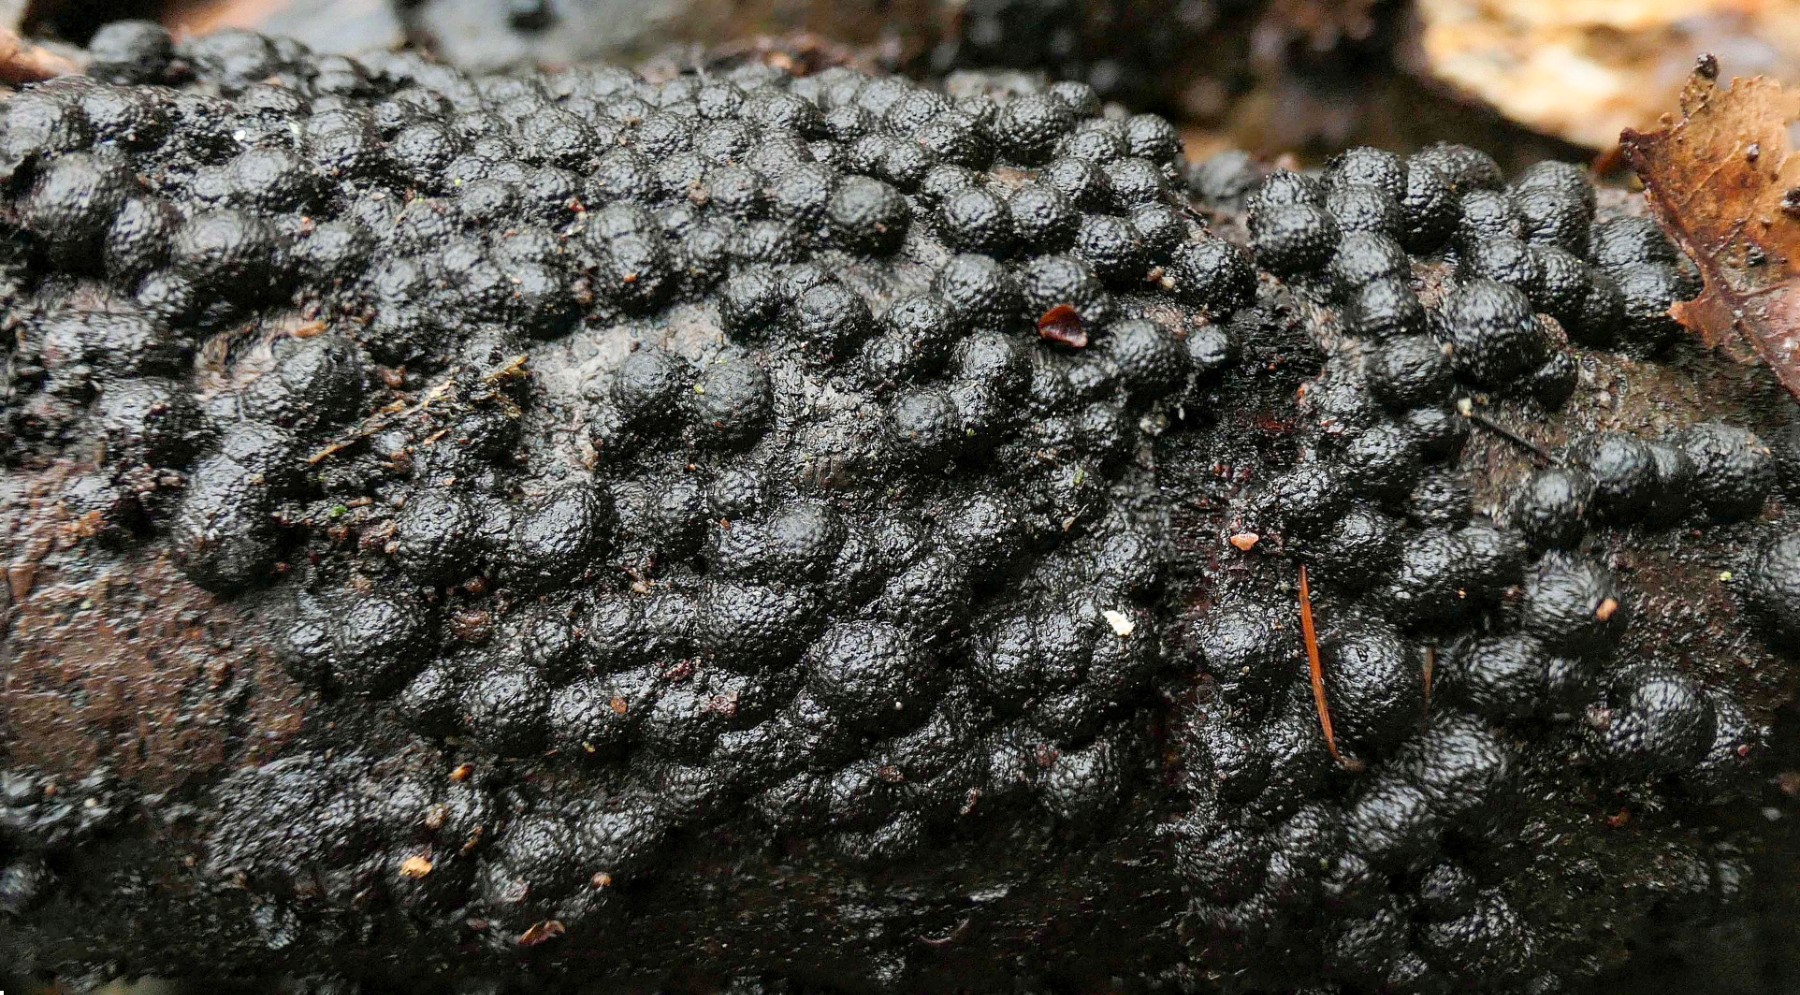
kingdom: Fungi
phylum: Ascomycota
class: Sordariomycetes
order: Xylariales
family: Hypoxylaceae
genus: Jackrogersella
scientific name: Jackrogersella cohaerens
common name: sammenflydende kulbær
